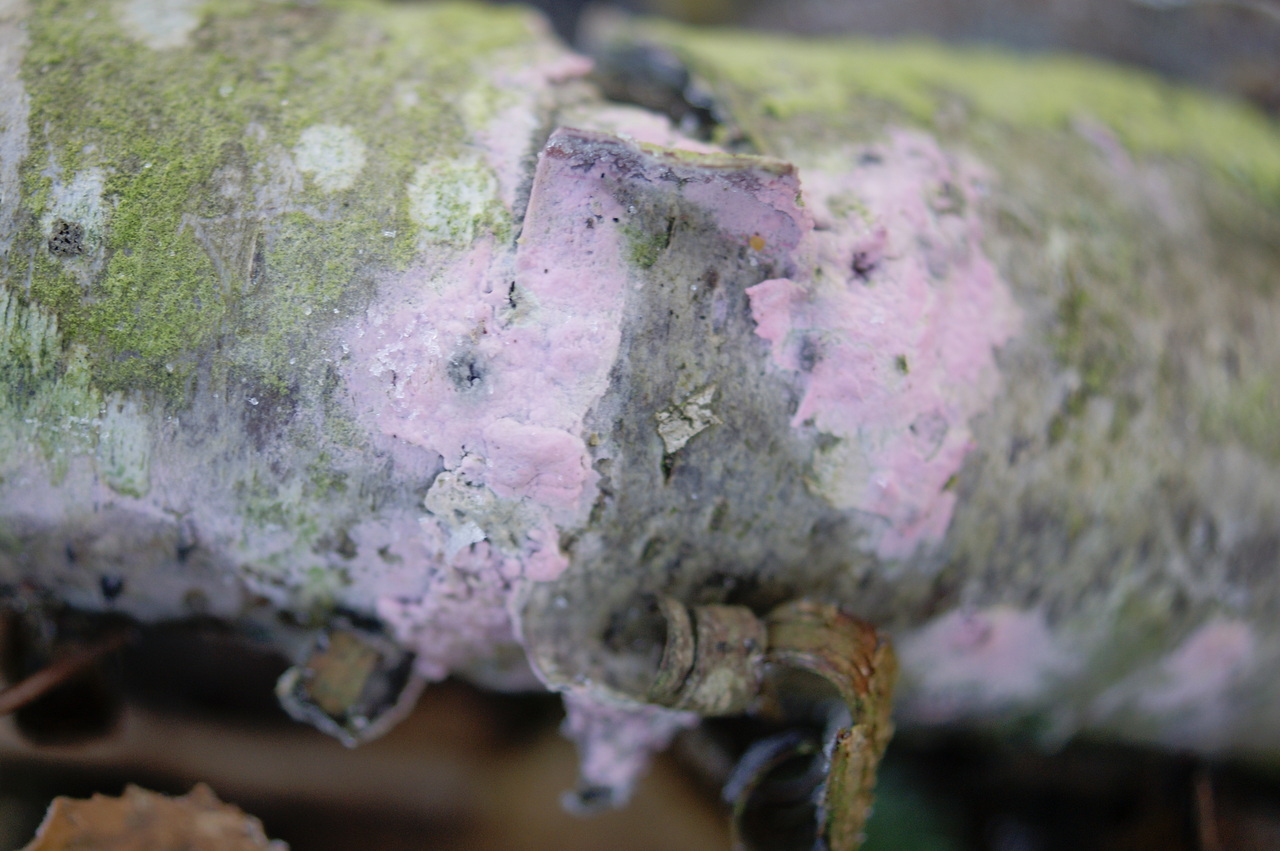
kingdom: Fungi
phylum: Basidiomycota
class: Agaricomycetes
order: Cantharellales
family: Tulasnellaceae
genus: Tulasnella
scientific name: Tulasnella violea
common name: violet ballonhinde
